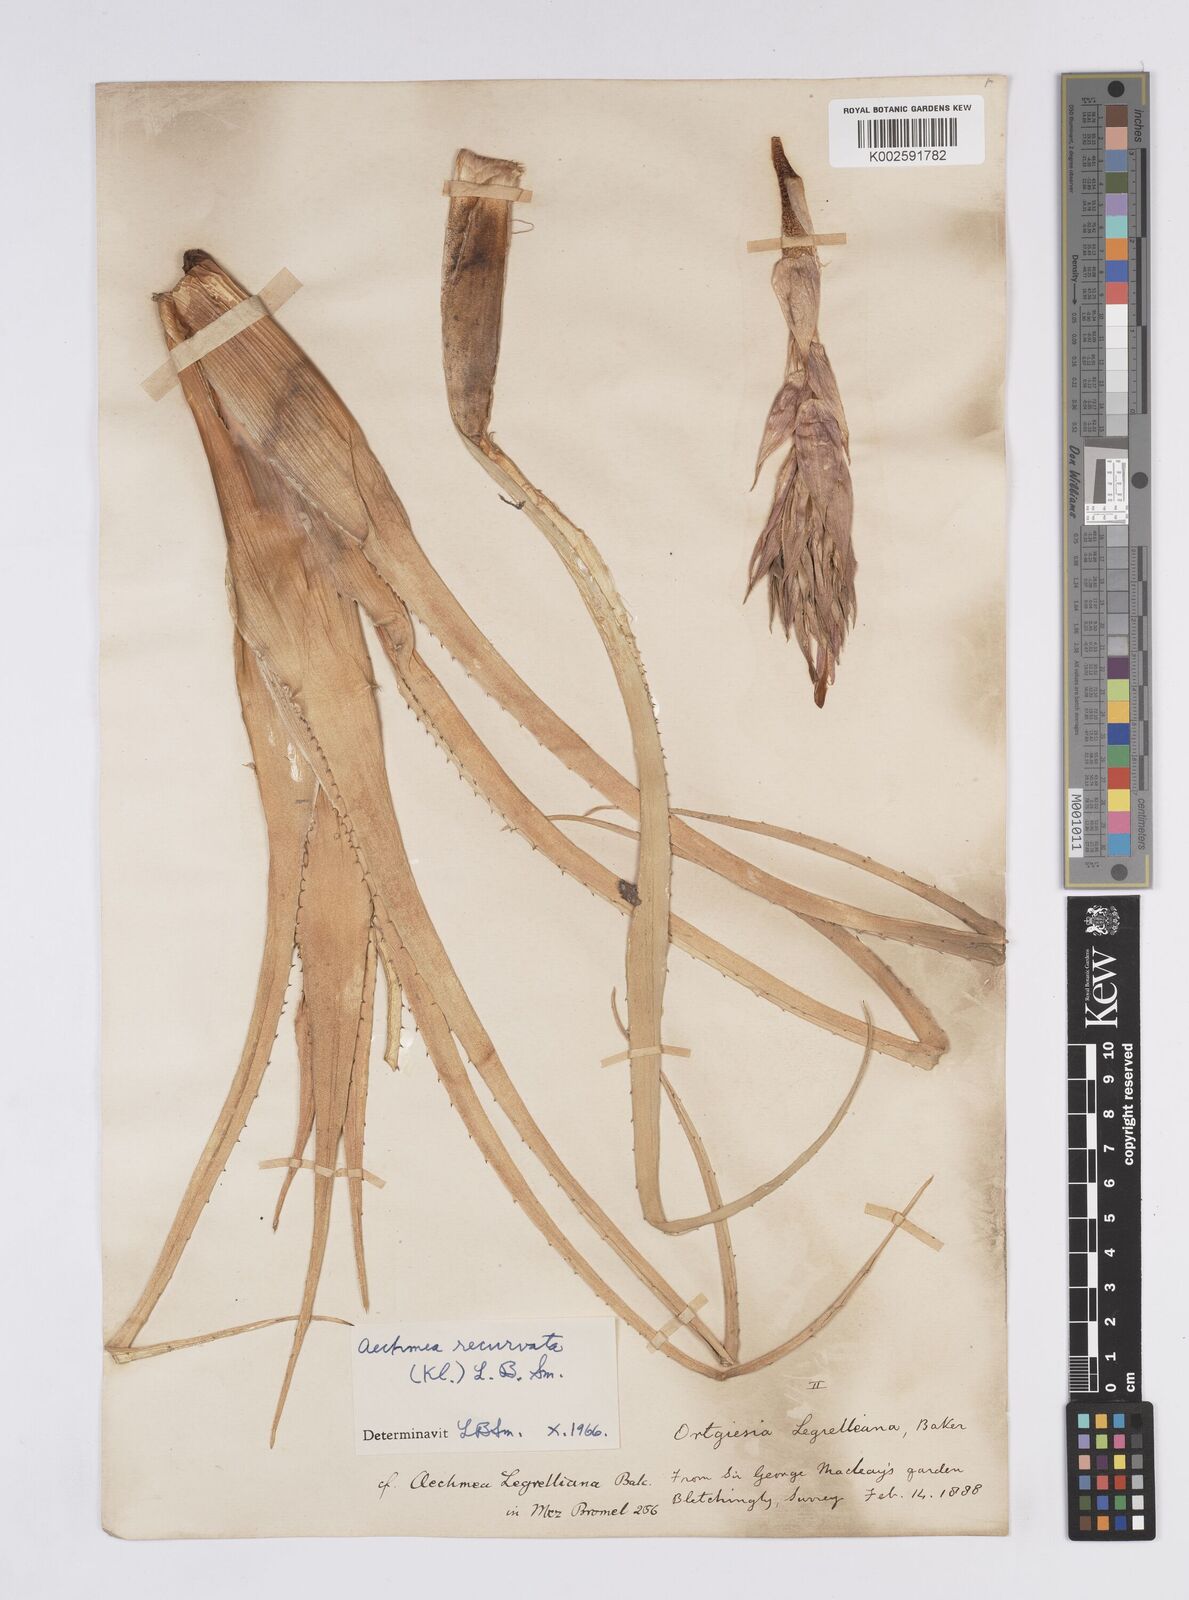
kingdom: Plantae
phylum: Tracheophyta
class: Liliopsida
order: Poales
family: Bromeliaceae
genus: Aechmea
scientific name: Aechmea recurvata
